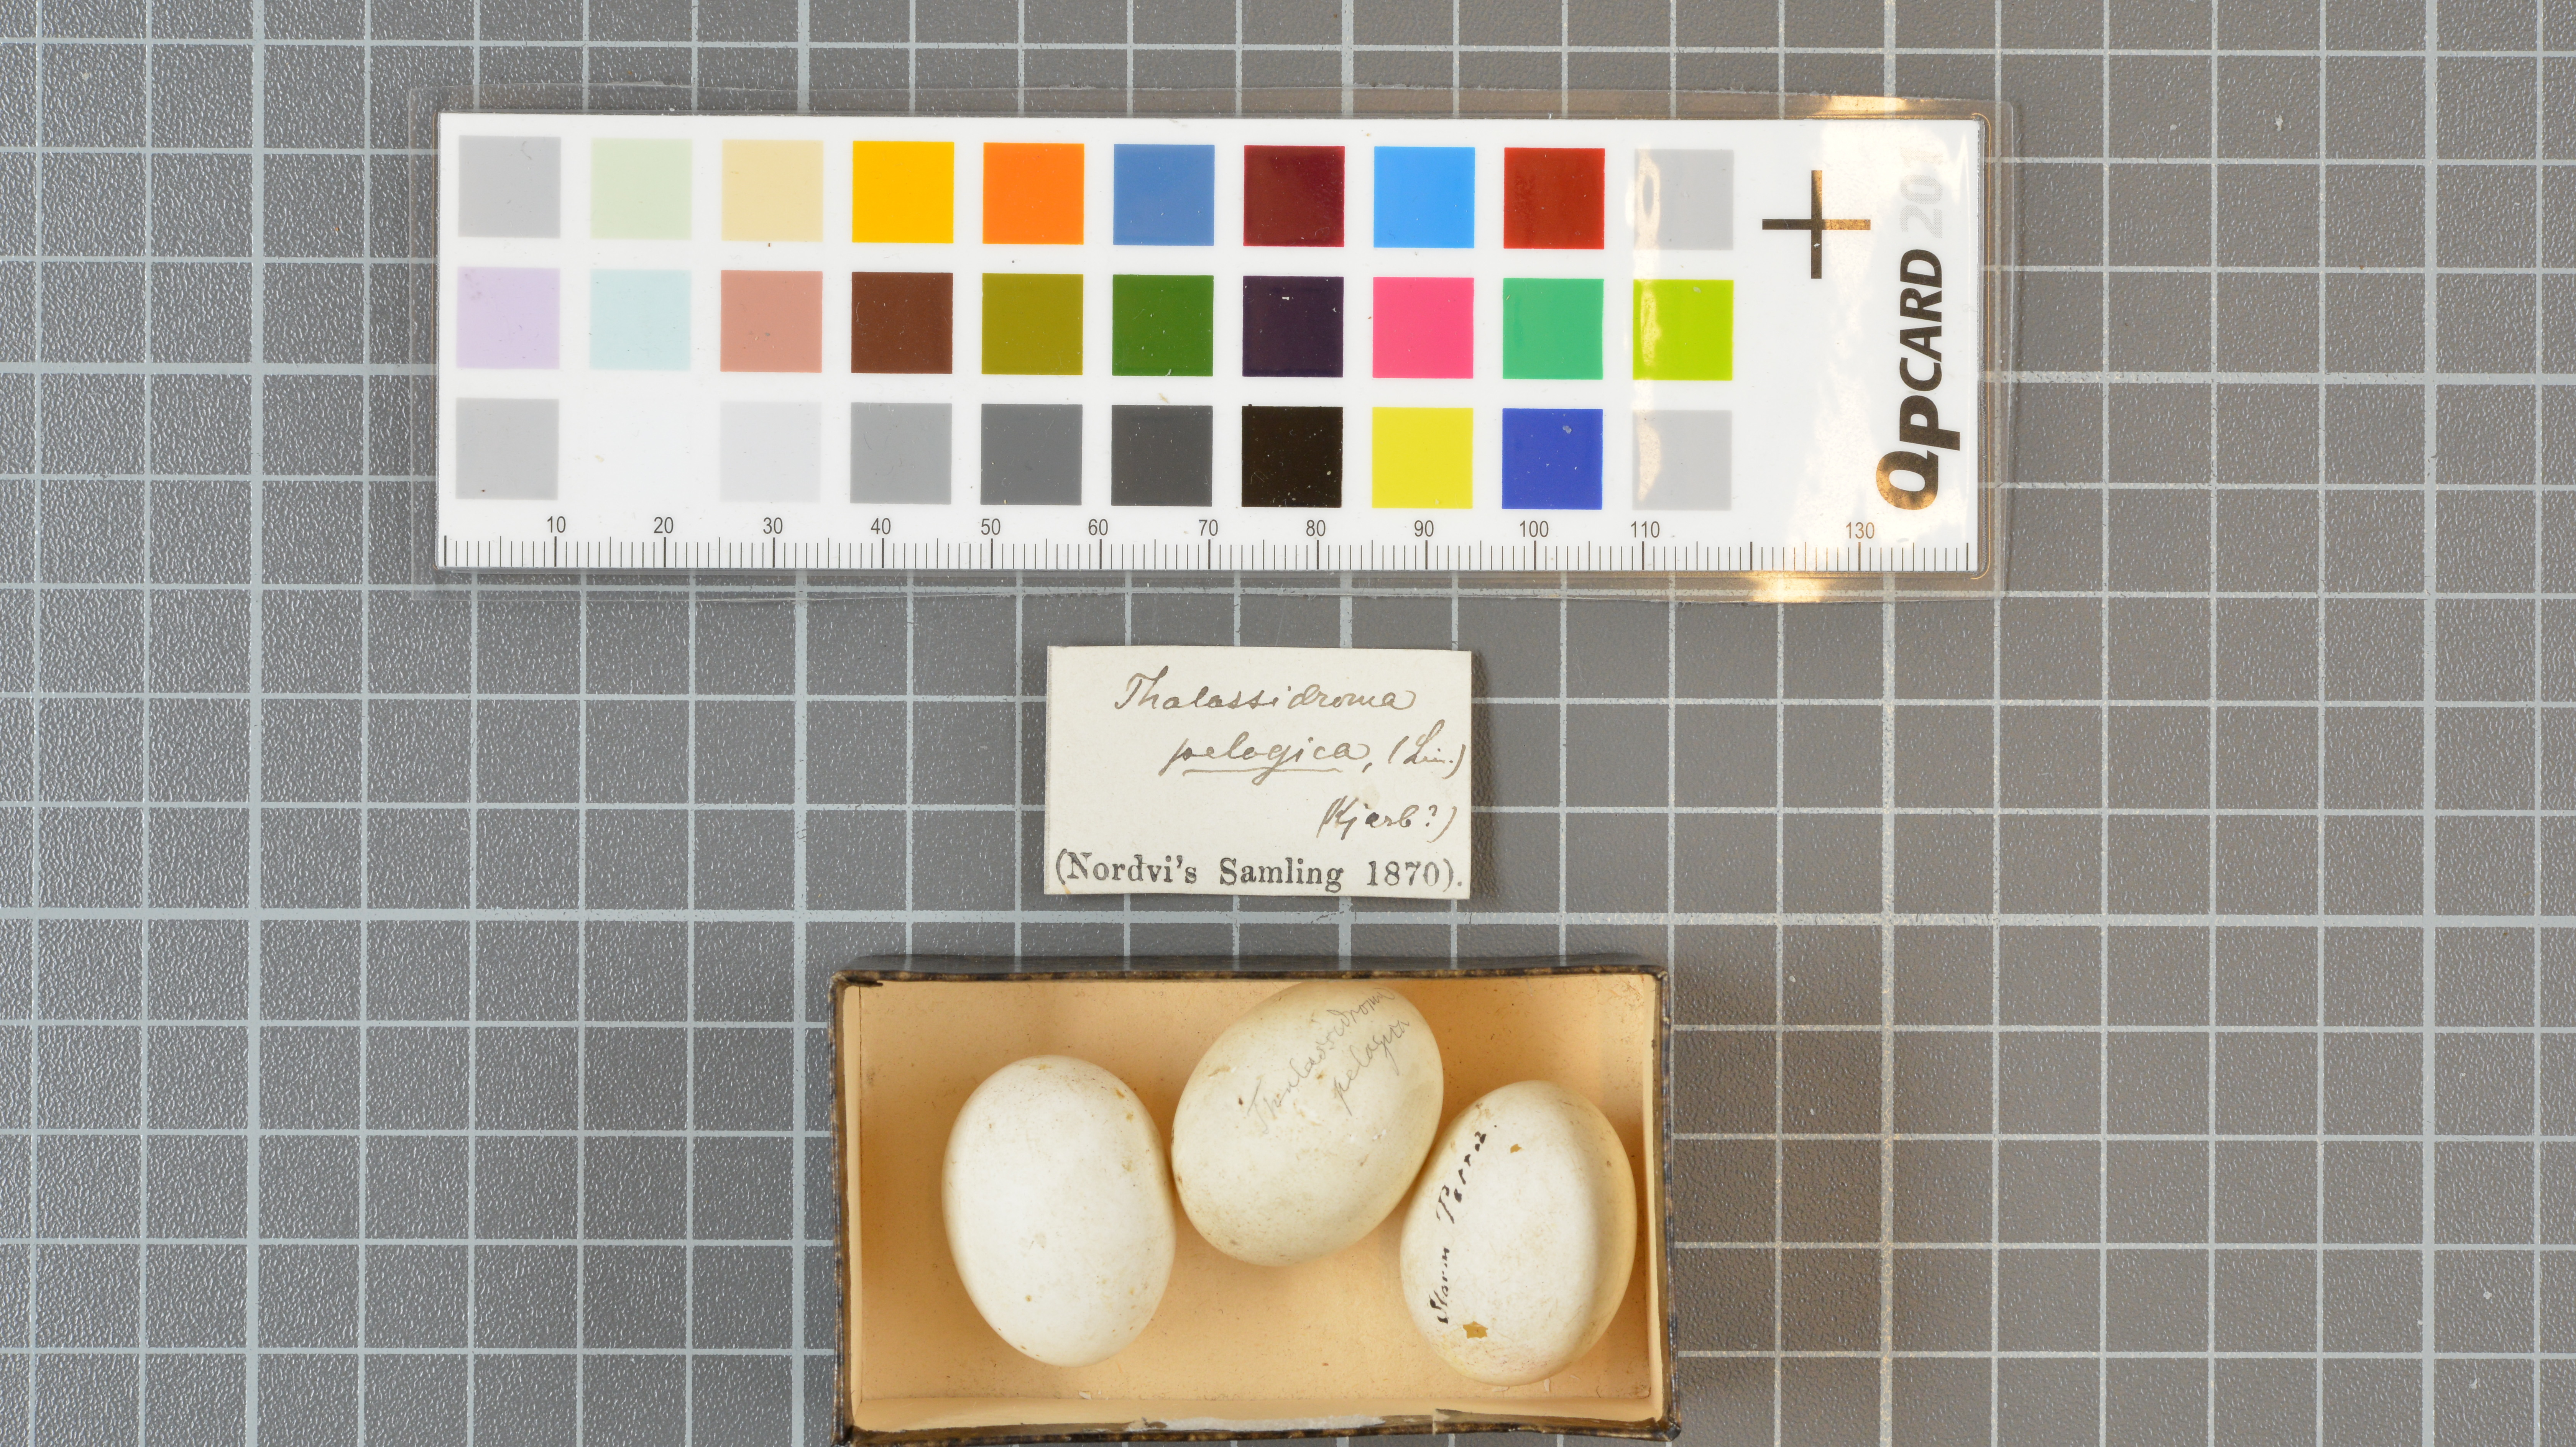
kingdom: Animalia
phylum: Chordata
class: Aves
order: Procellariiformes
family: Hydrobatidae
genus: Hydrobates
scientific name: Hydrobates pelagicus
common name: European storm-petrel
